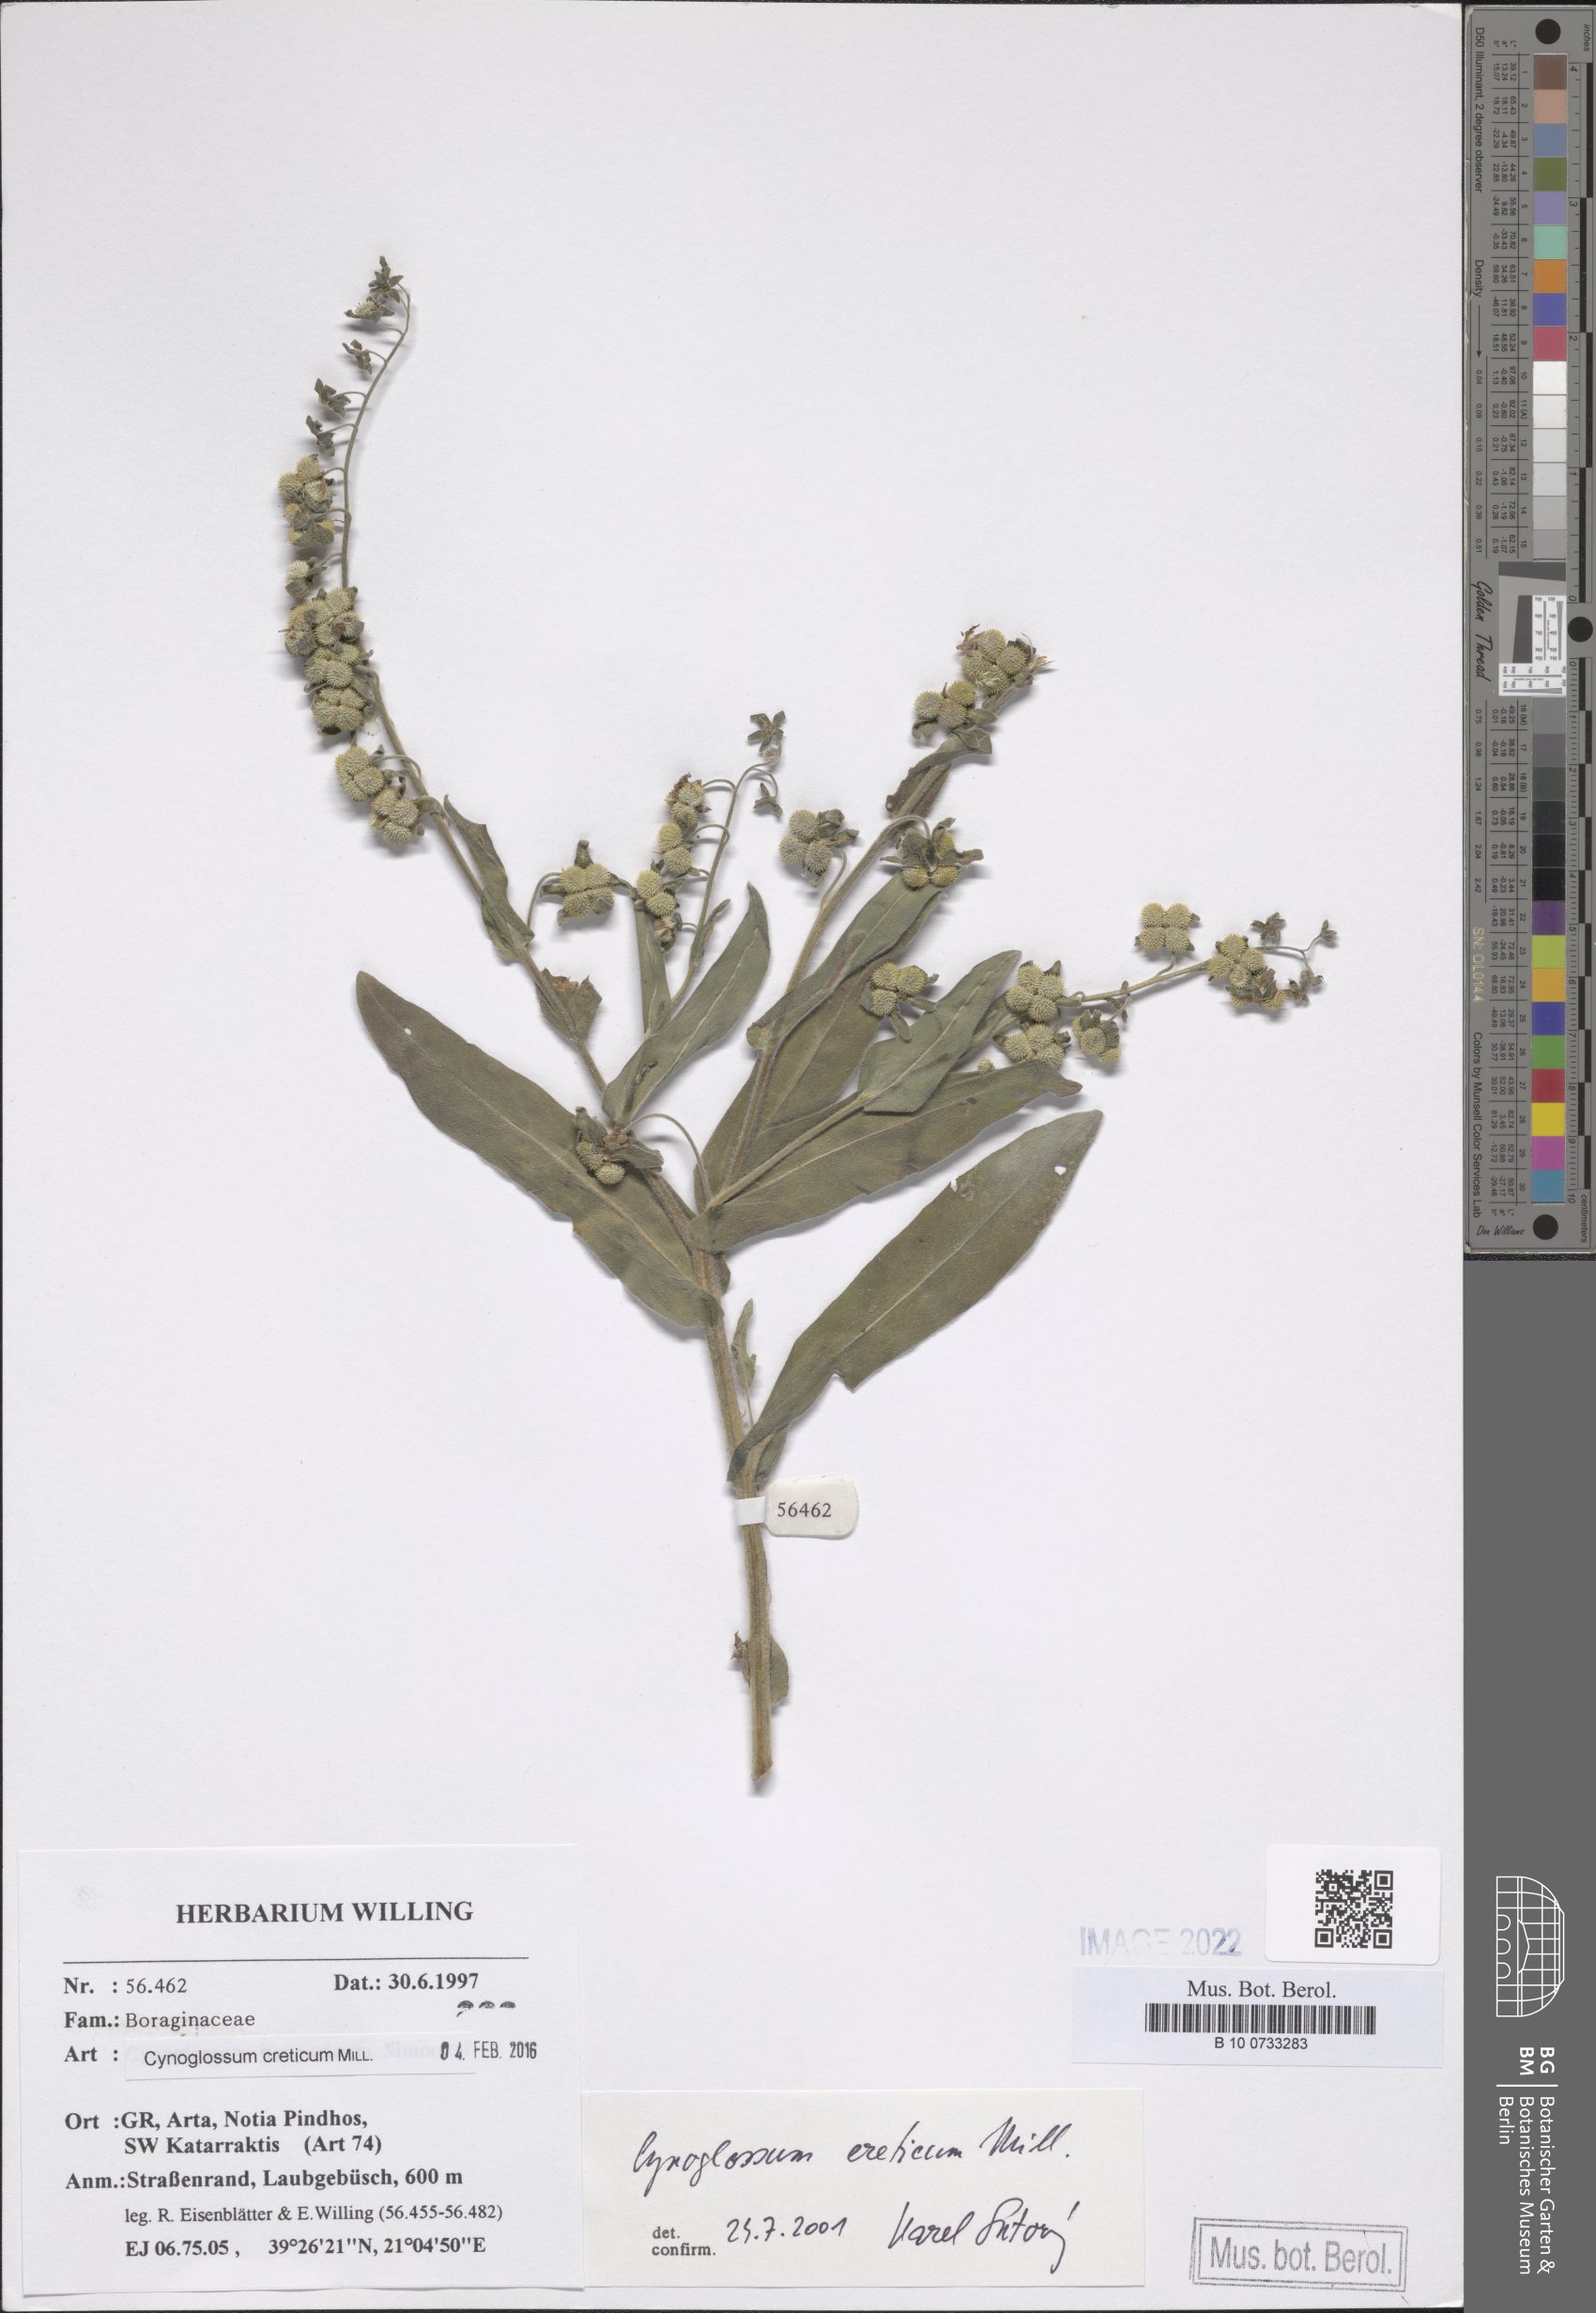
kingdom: Plantae
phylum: Tracheophyta
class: Magnoliopsida
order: Boraginales
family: Boraginaceae
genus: Cynoglossum
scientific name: Cynoglossum creticum
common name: Blue hound's tongue
